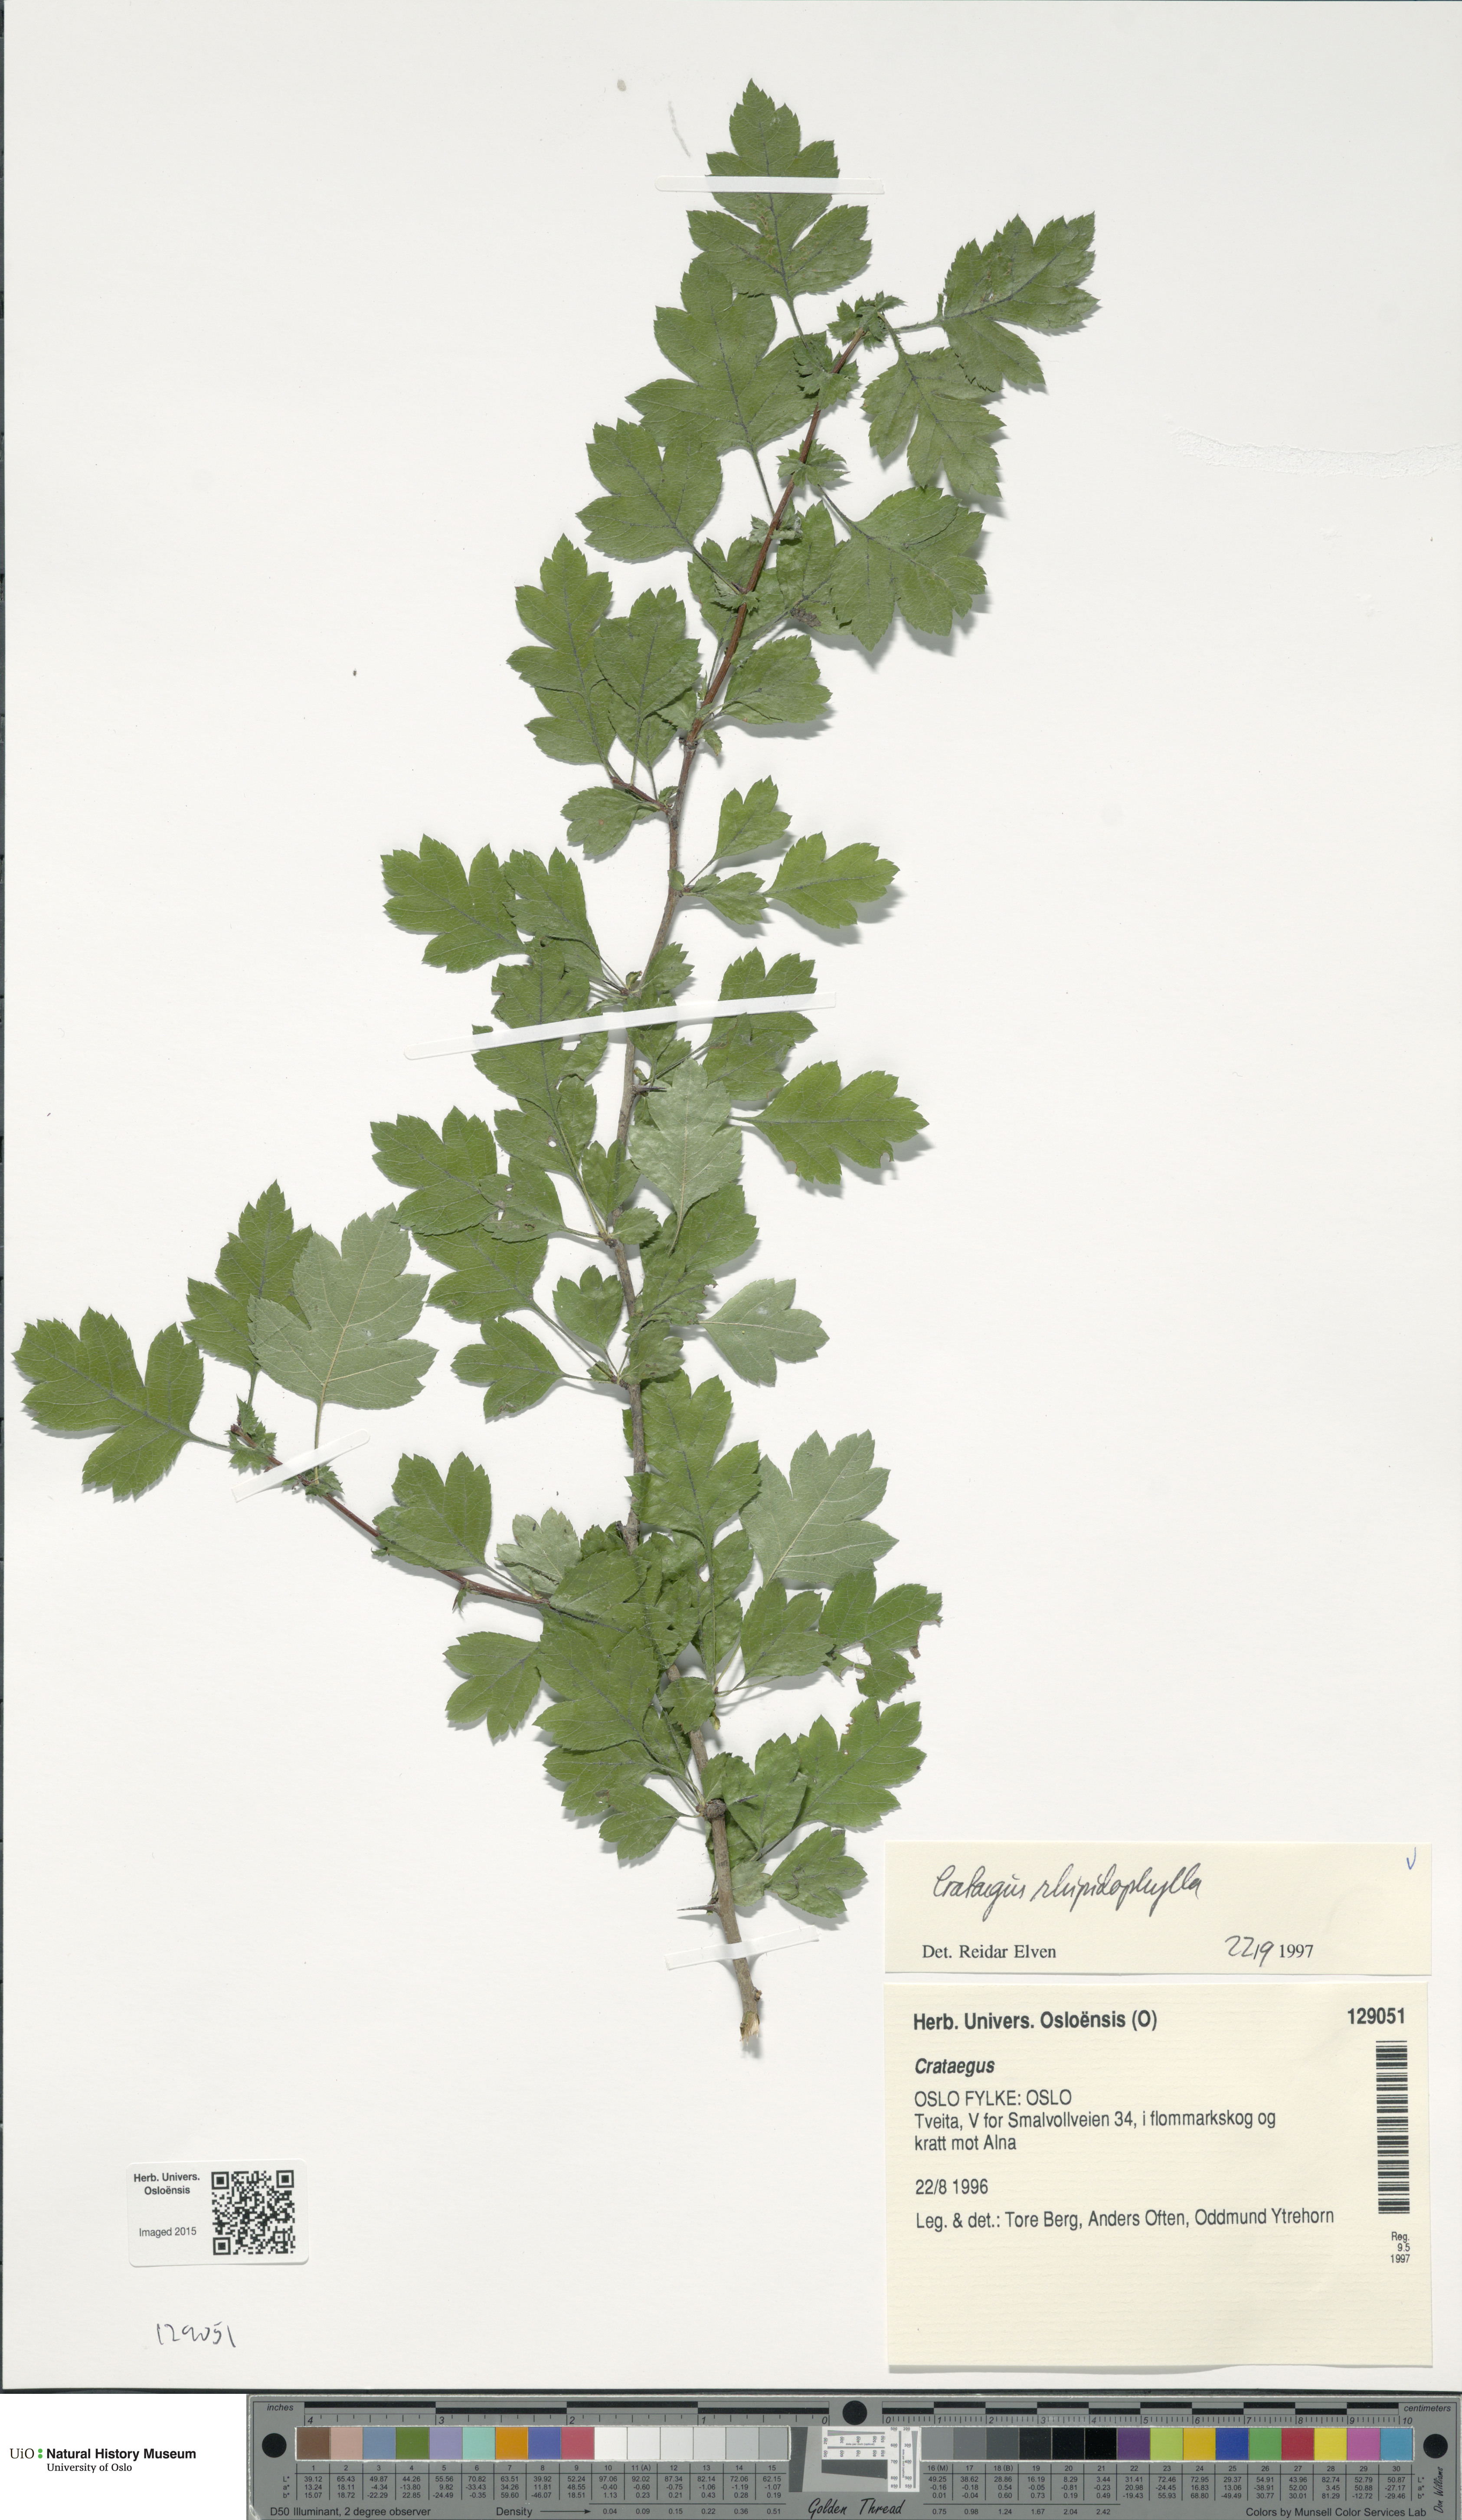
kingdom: Plantae
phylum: Tracheophyta
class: Magnoliopsida
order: Rosales
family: Rosaceae
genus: Crataegus
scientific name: Crataegus rhipidophylla
